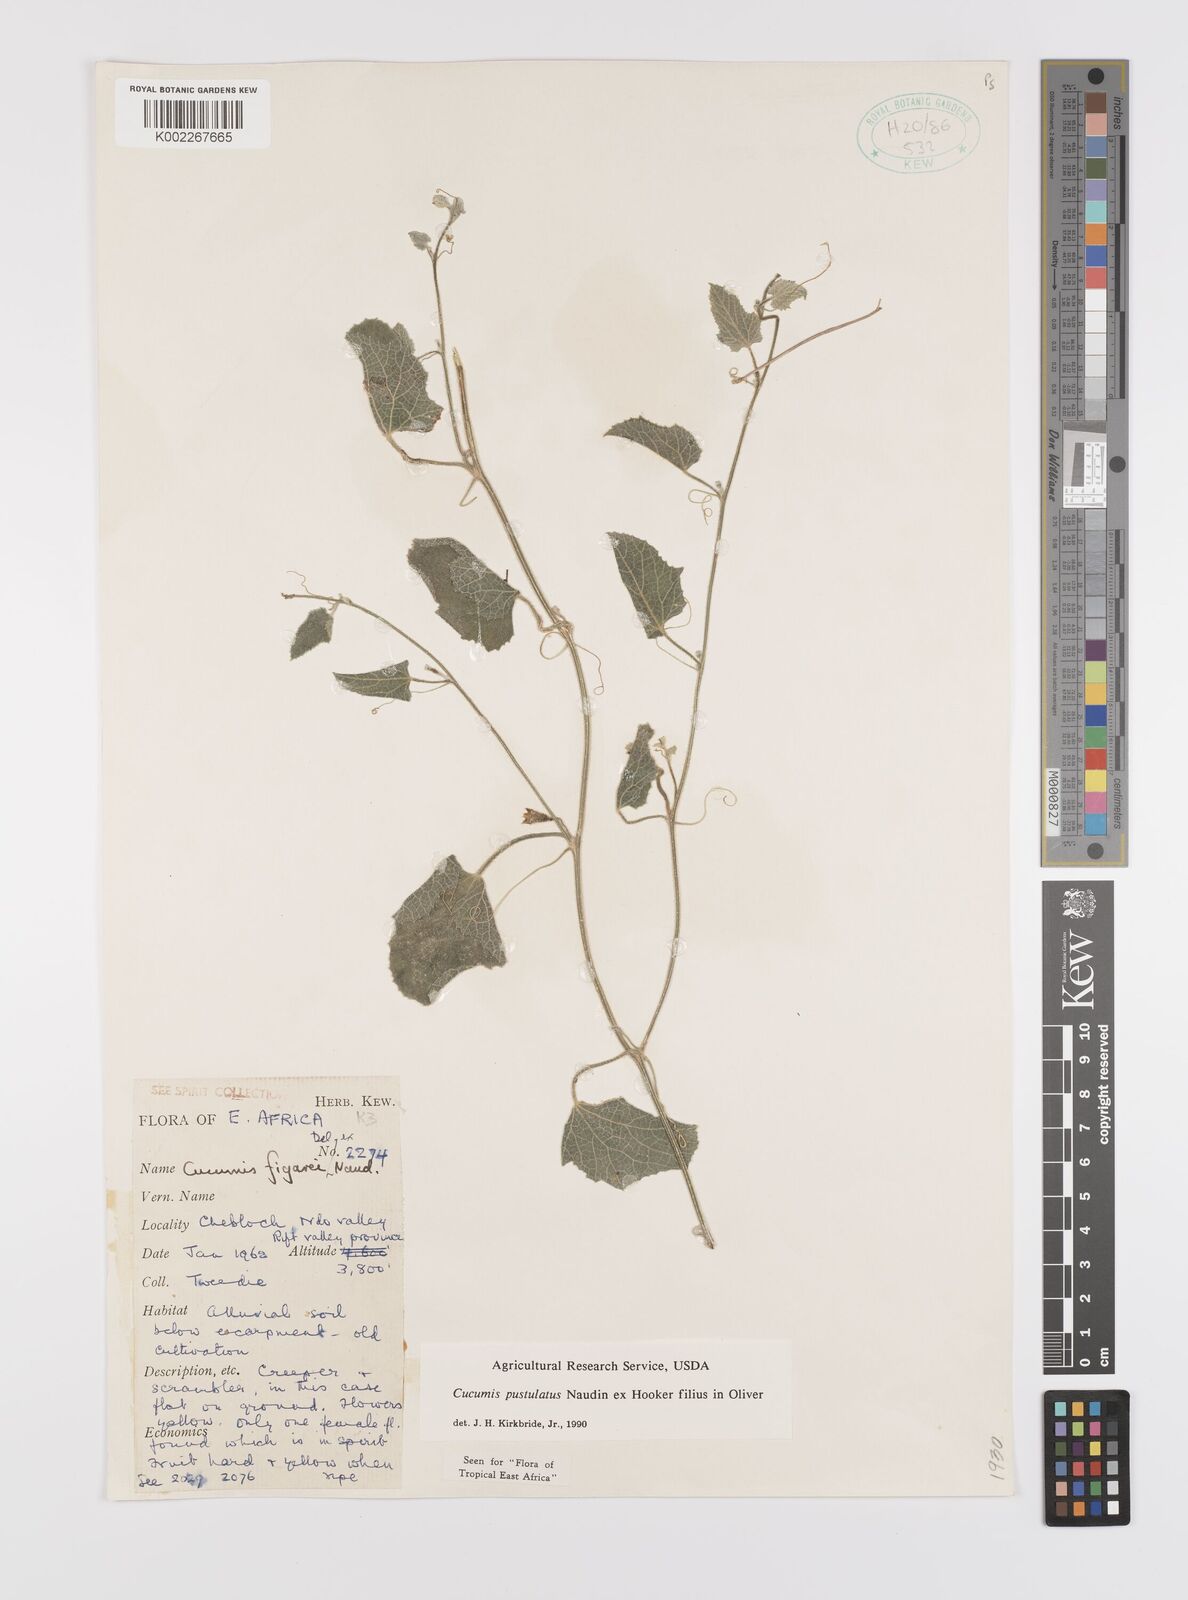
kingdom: Plantae
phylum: Tracheophyta
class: Magnoliopsida
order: Cucurbitales
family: Cucurbitaceae
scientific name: Cucurbitaceae
